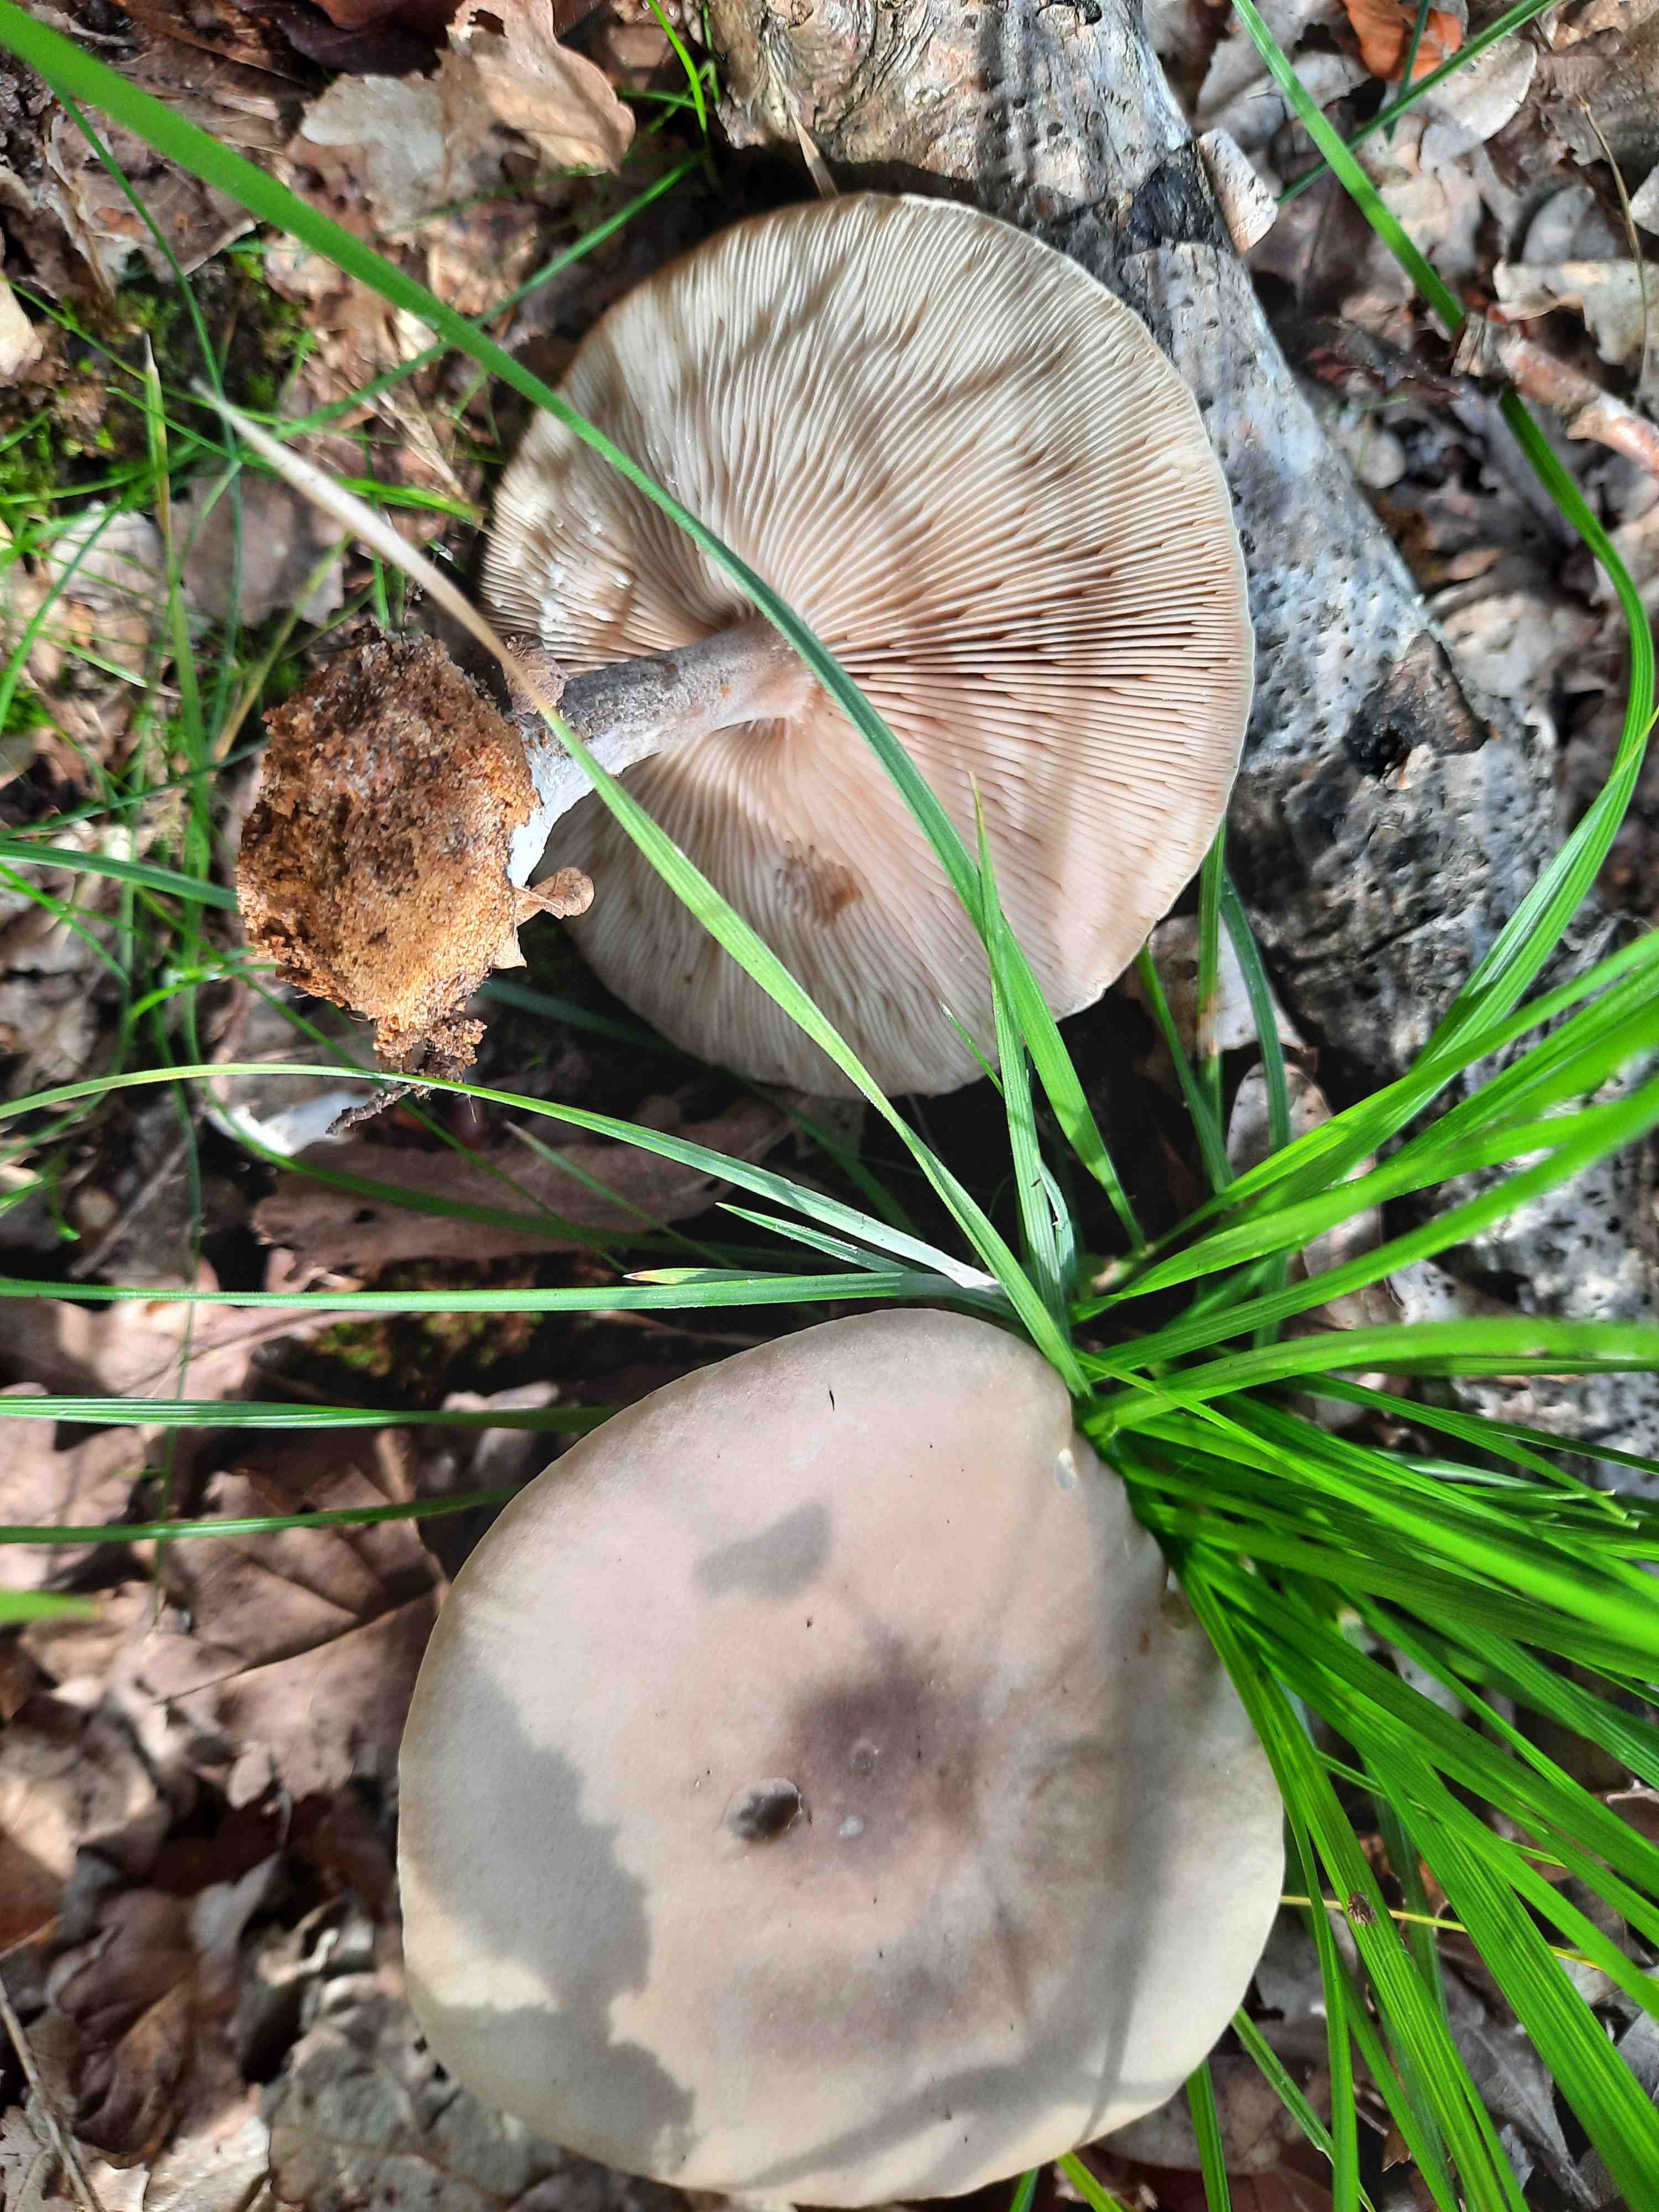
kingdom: Fungi
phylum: Basidiomycota
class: Agaricomycetes
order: Agaricales
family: Tricholomataceae
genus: Melanoleuca
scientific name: Melanoleuca
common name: munkehat
